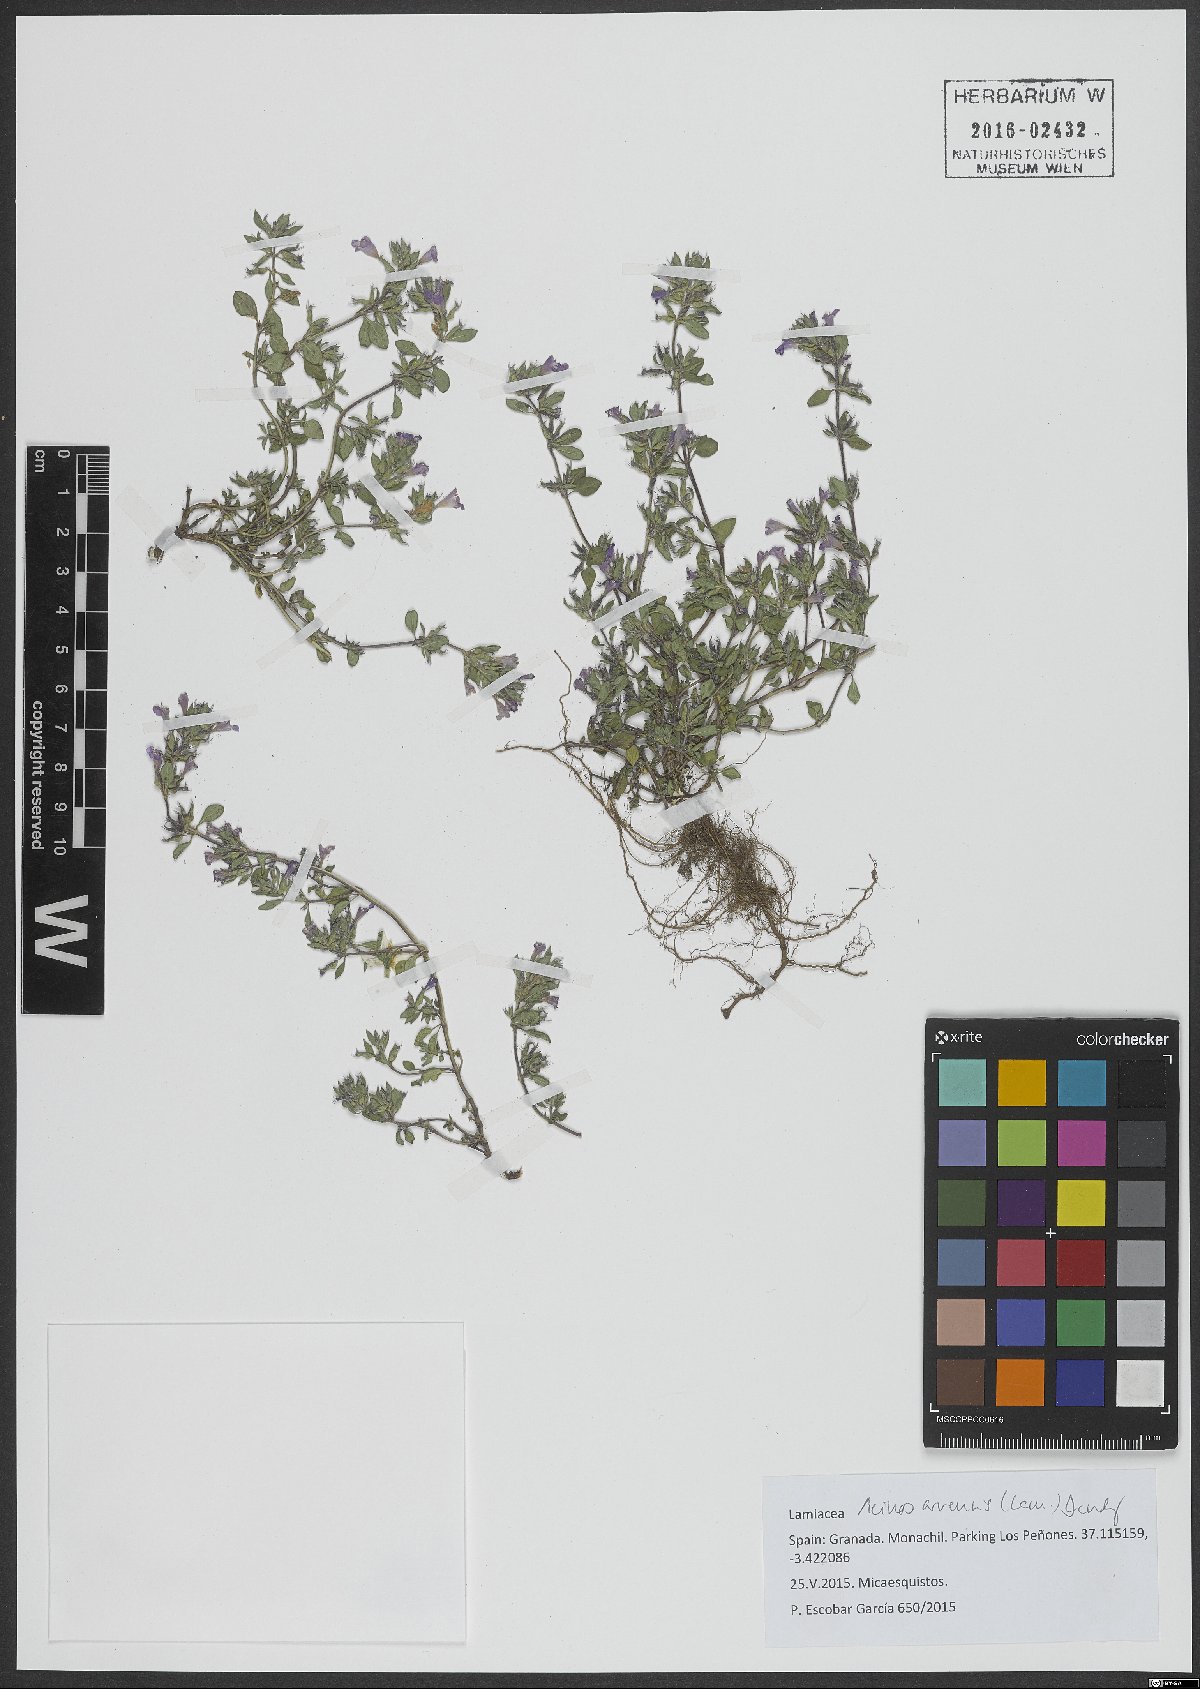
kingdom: Plantae
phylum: Tracheophyta
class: Magnoliopsida
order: Lamiales
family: Lamiaceae
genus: Clinopodium
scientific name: Clinopodium acinos
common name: Basil thyme
